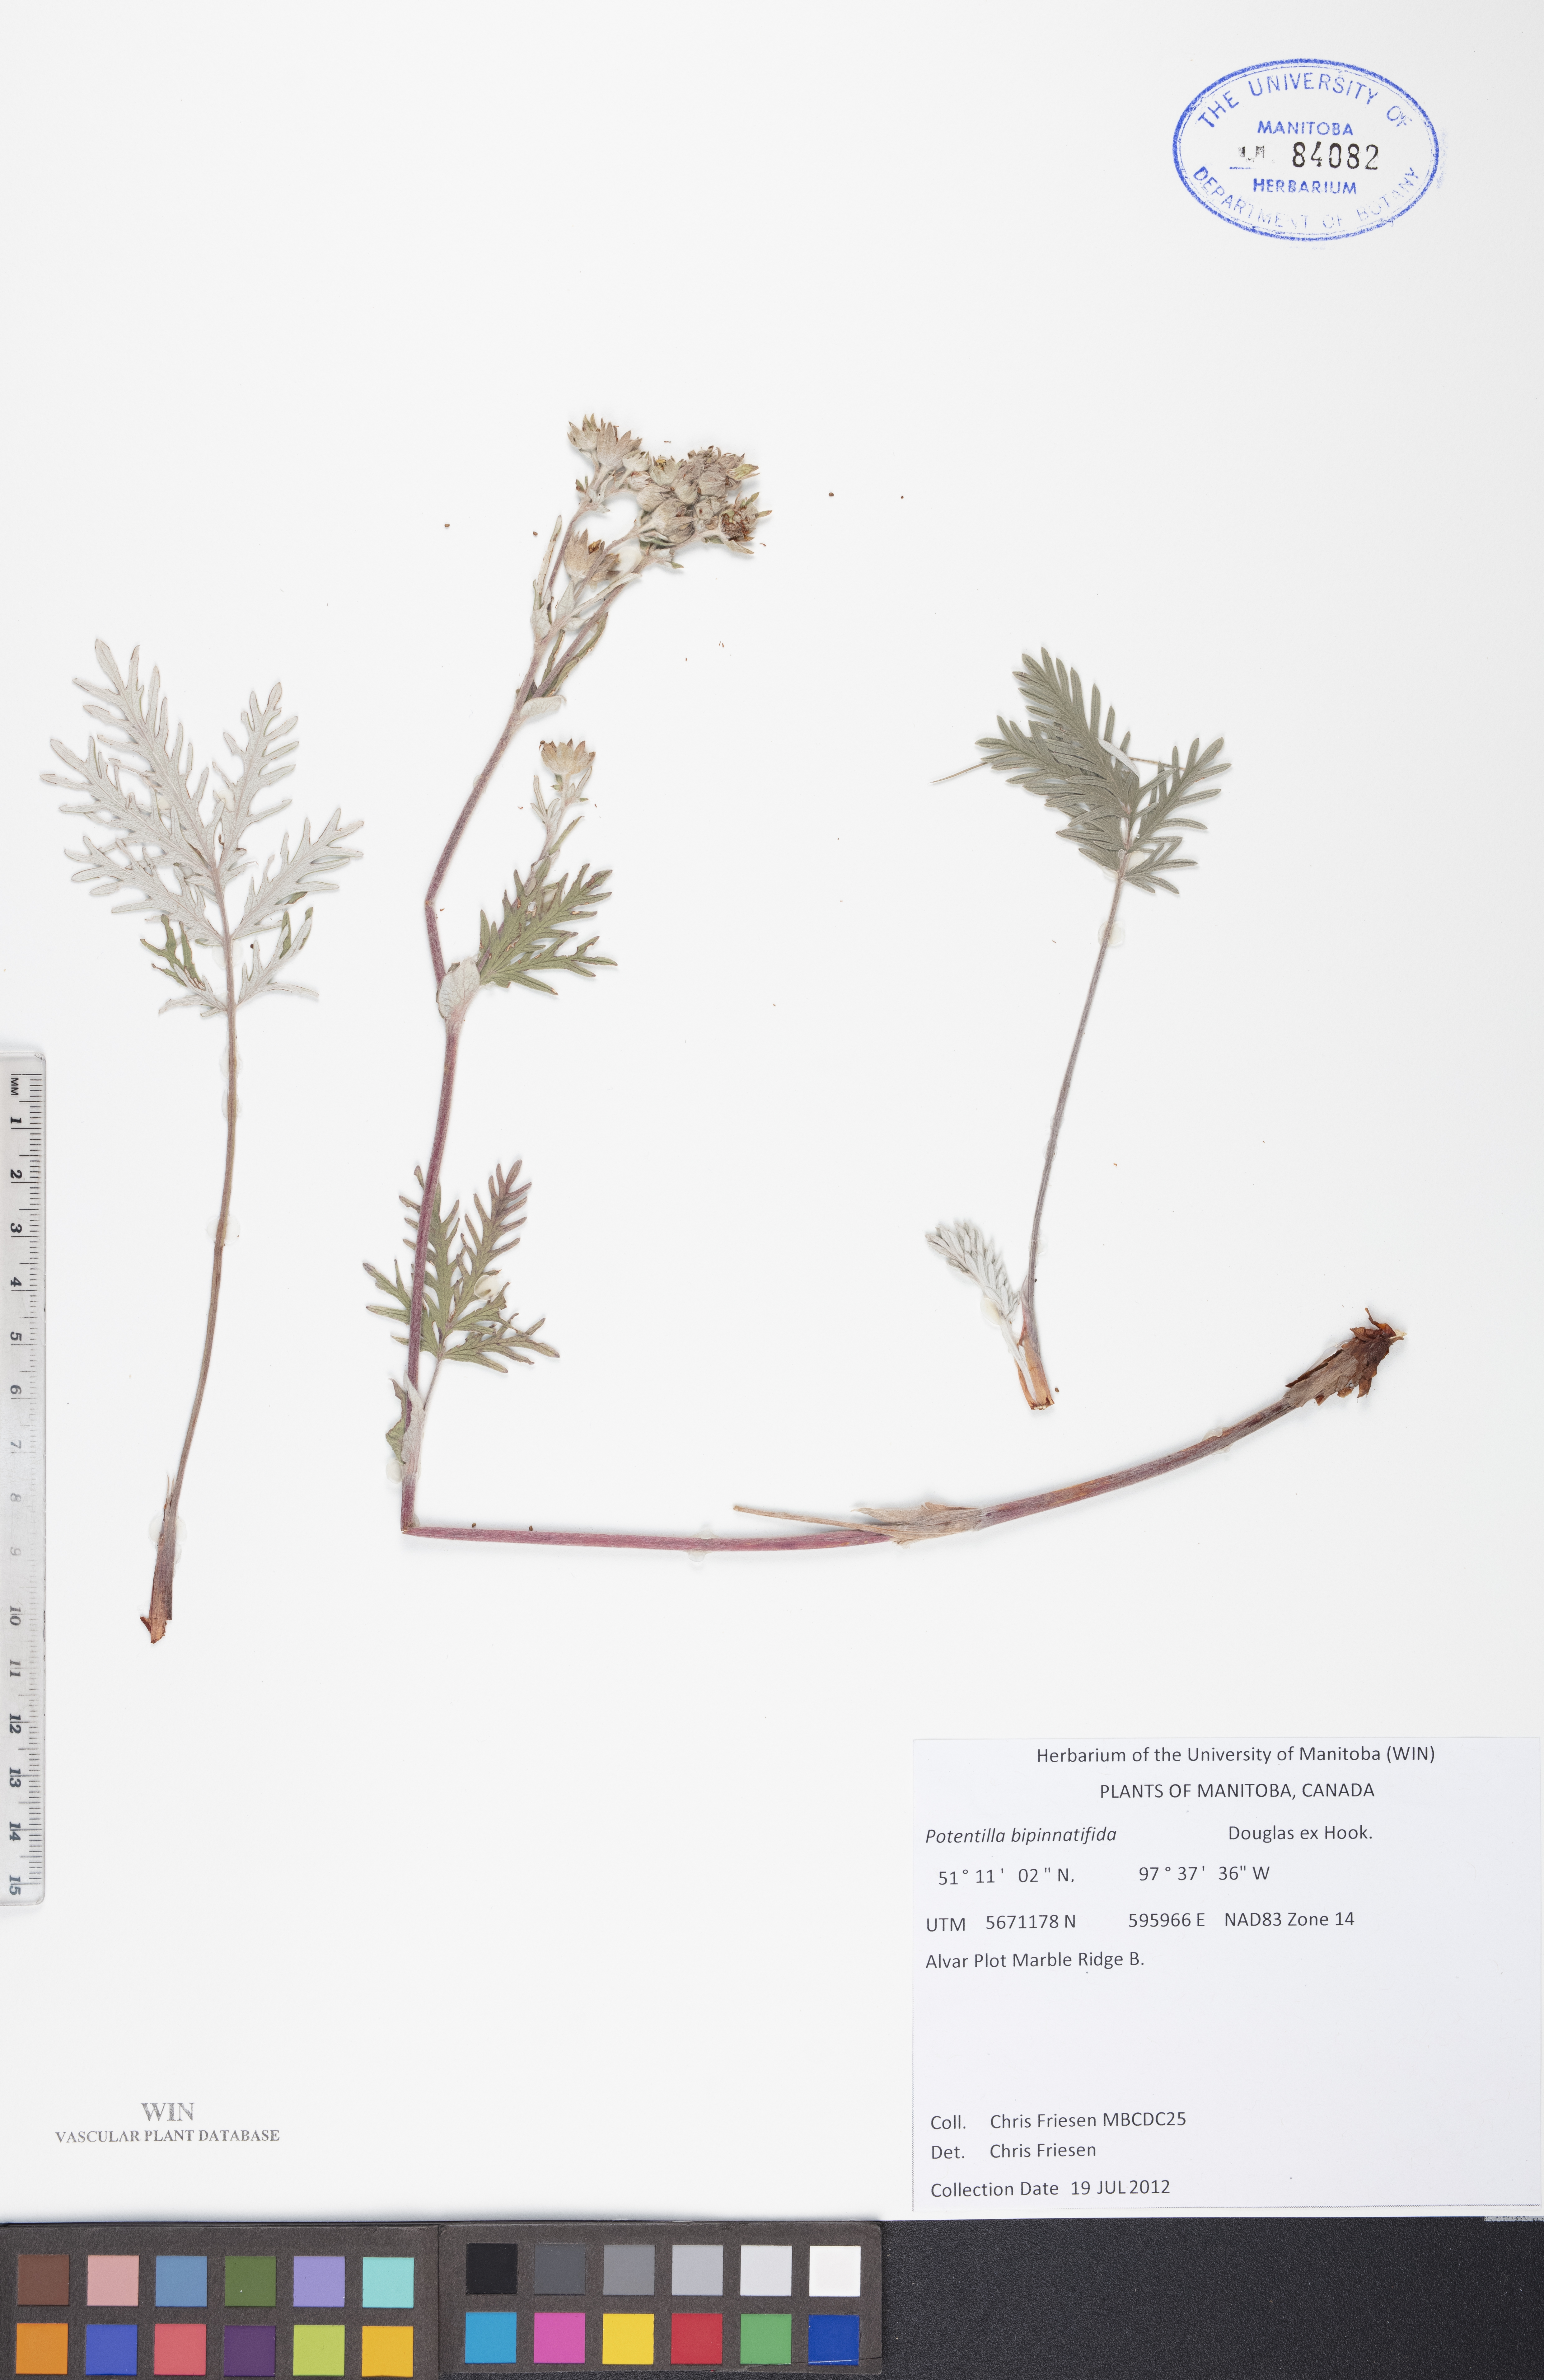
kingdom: Plantae
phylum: Tracheophyta
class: Magnoliopsida
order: Rosales
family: Rosaceae
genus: Potentilla
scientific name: Potentilla bipinnatifida
